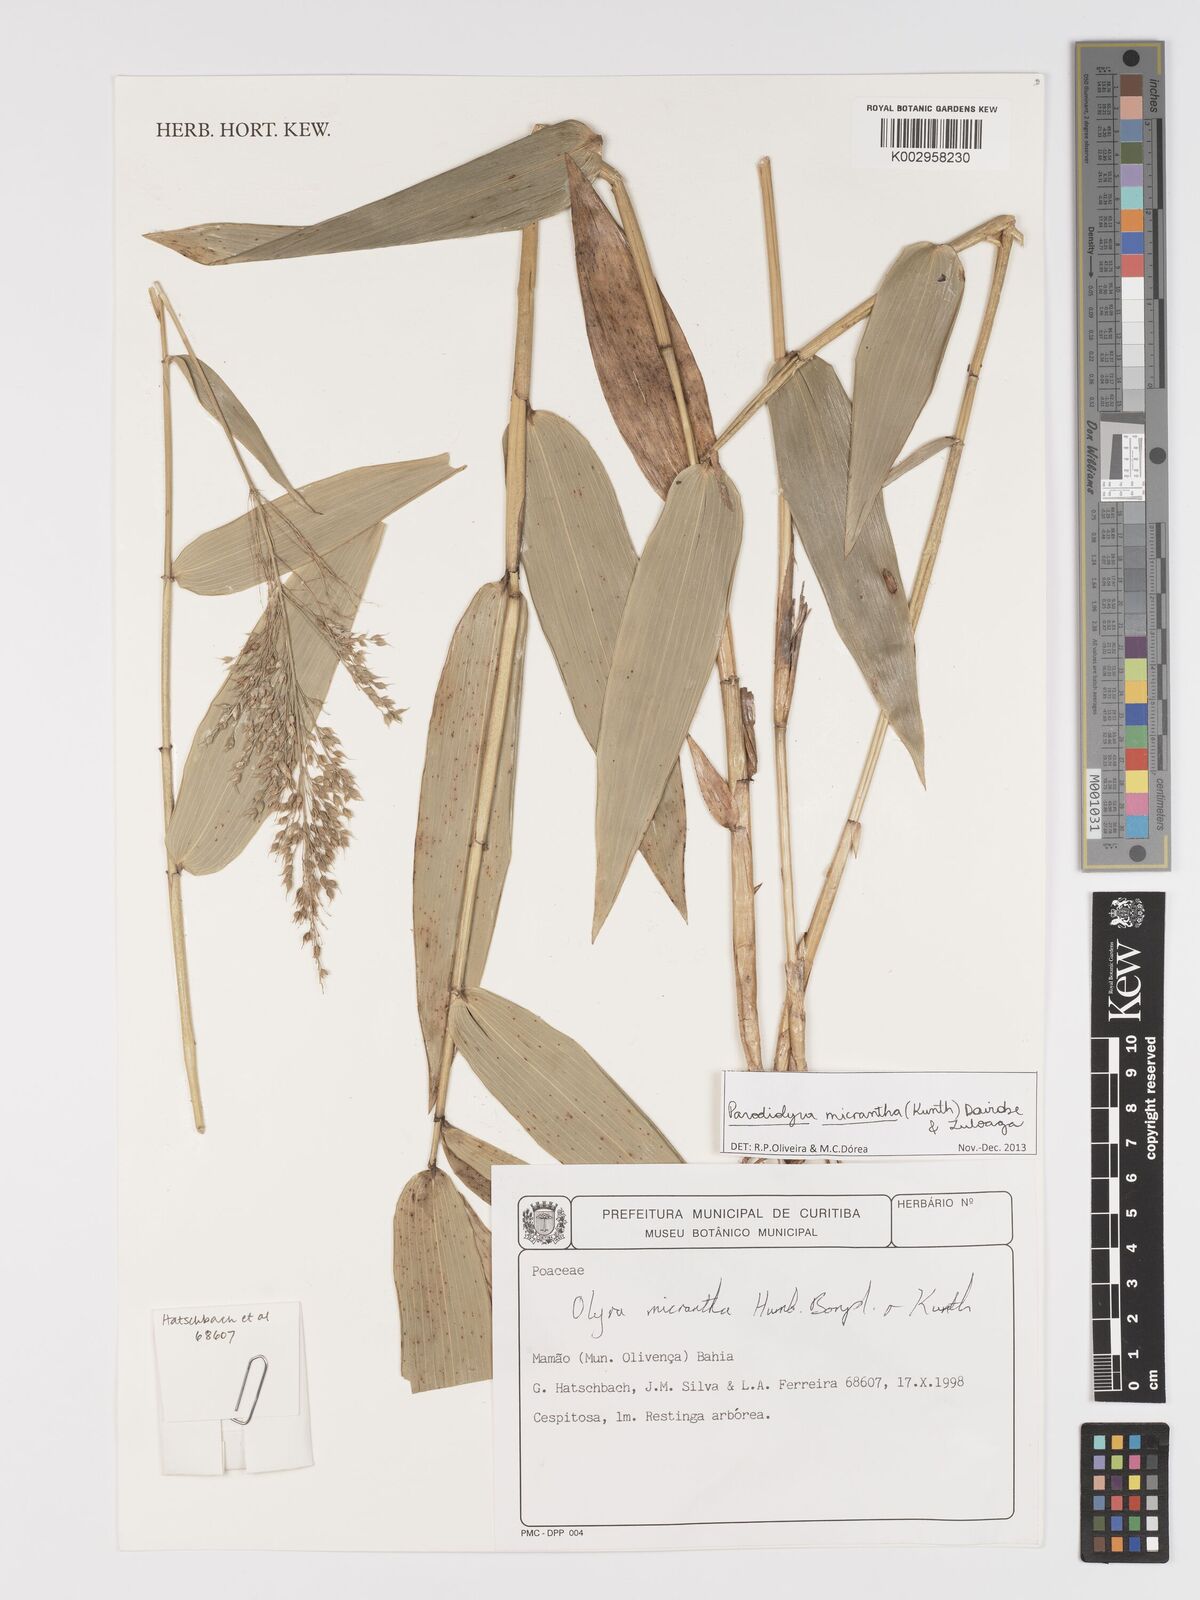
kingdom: Plantae
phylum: Tracheophyta
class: Liliopsida
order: Poales
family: Poaceae
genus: Taquara
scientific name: Taquara micrantha
